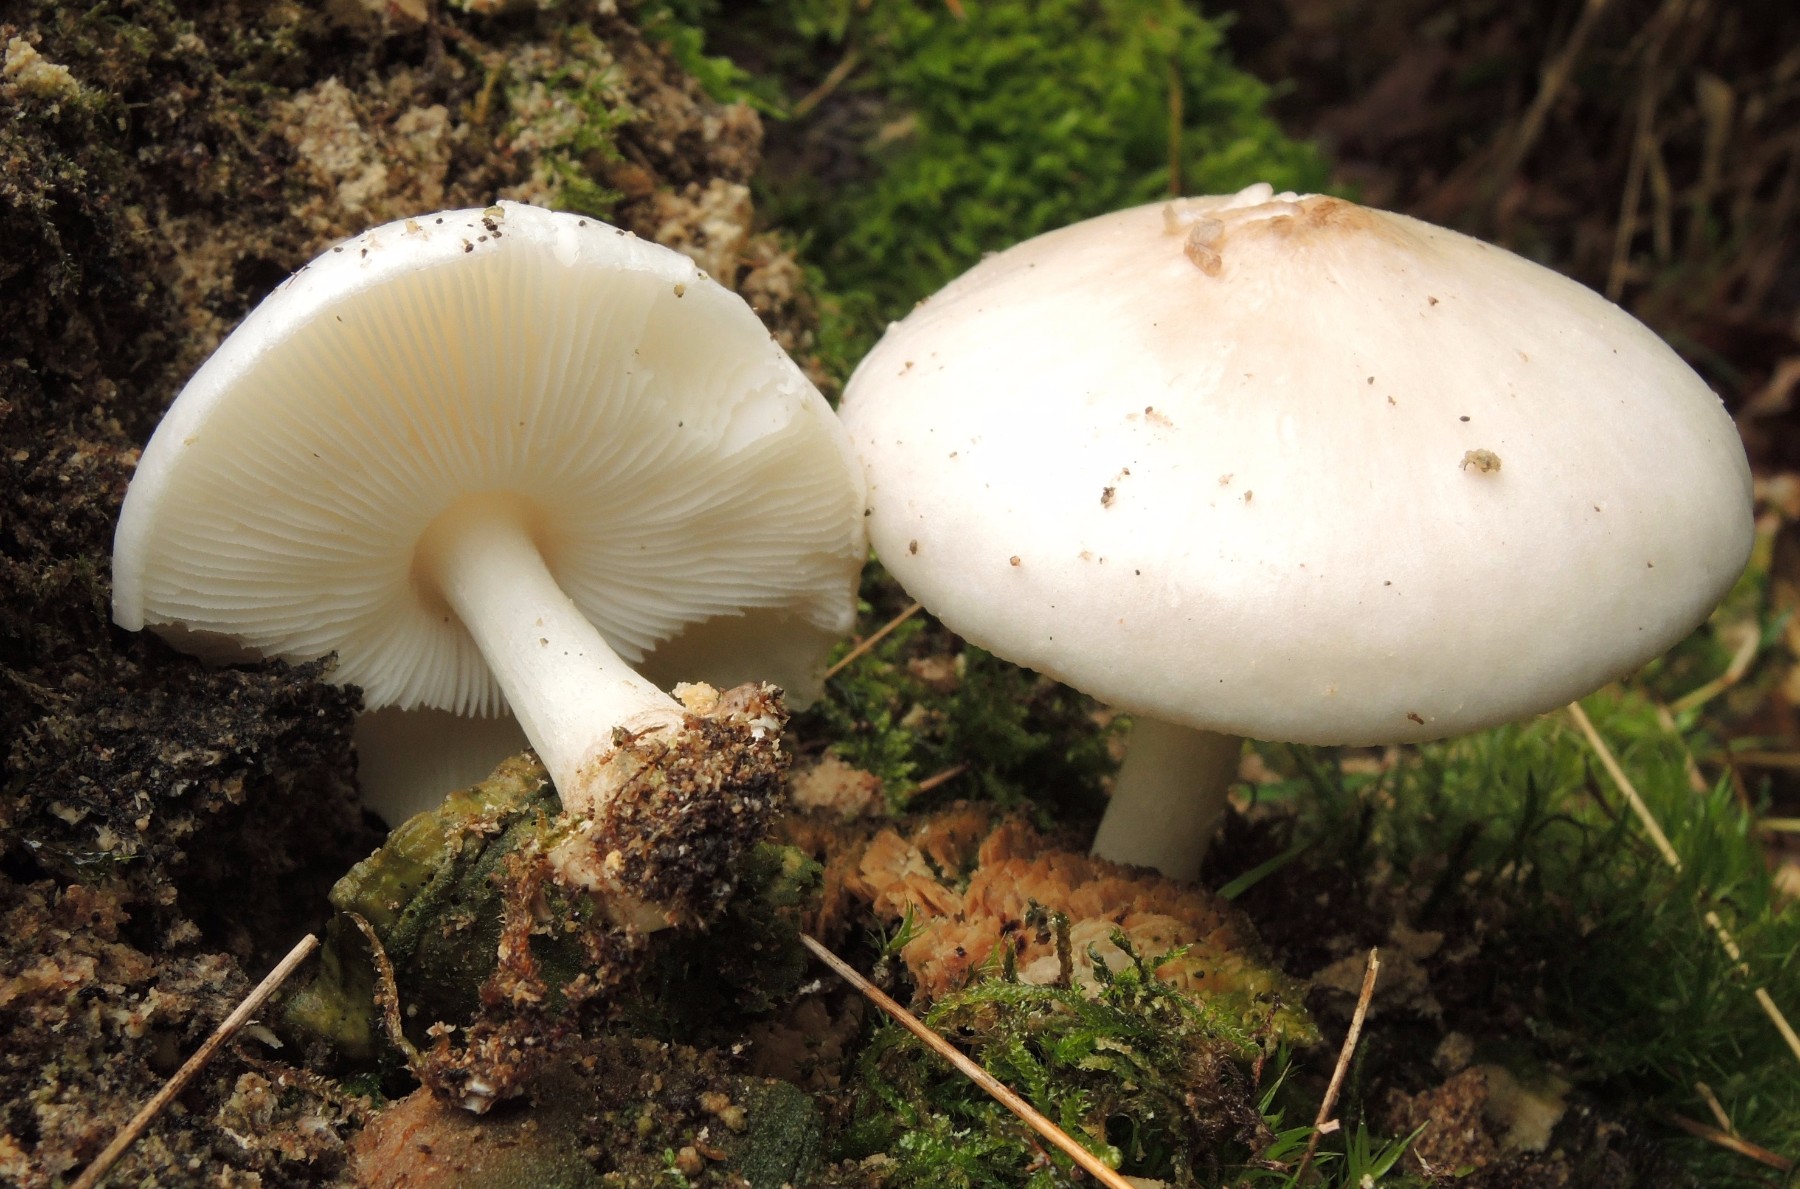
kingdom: Fungi
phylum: Basidiomycota
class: Agaricomycetes
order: Agaricales
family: Pluteaceae
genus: Pluteus
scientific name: Pluteus petasatus
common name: savsmulds-skærmhat
